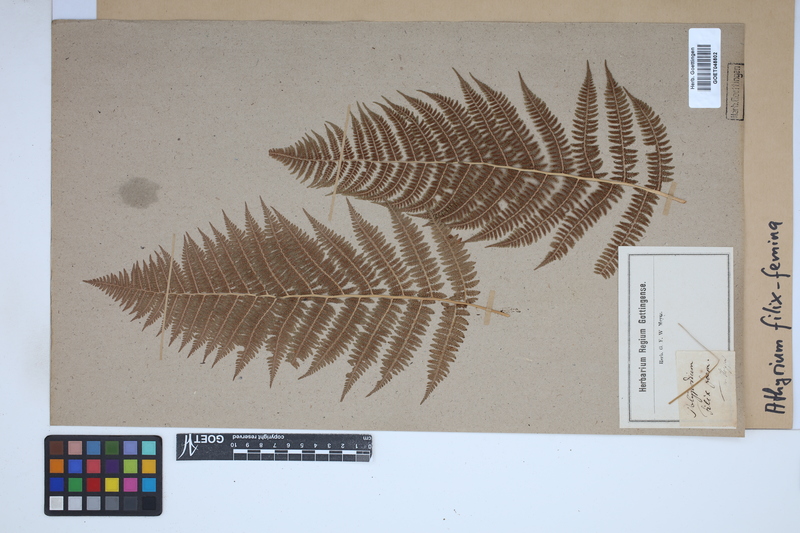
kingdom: Plantae
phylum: Tracheophyta
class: Polypodiopsida
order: Polypodiales
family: Athyriaceae
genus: Athyrium
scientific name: Athyrium filix-femina
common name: Lady fern
